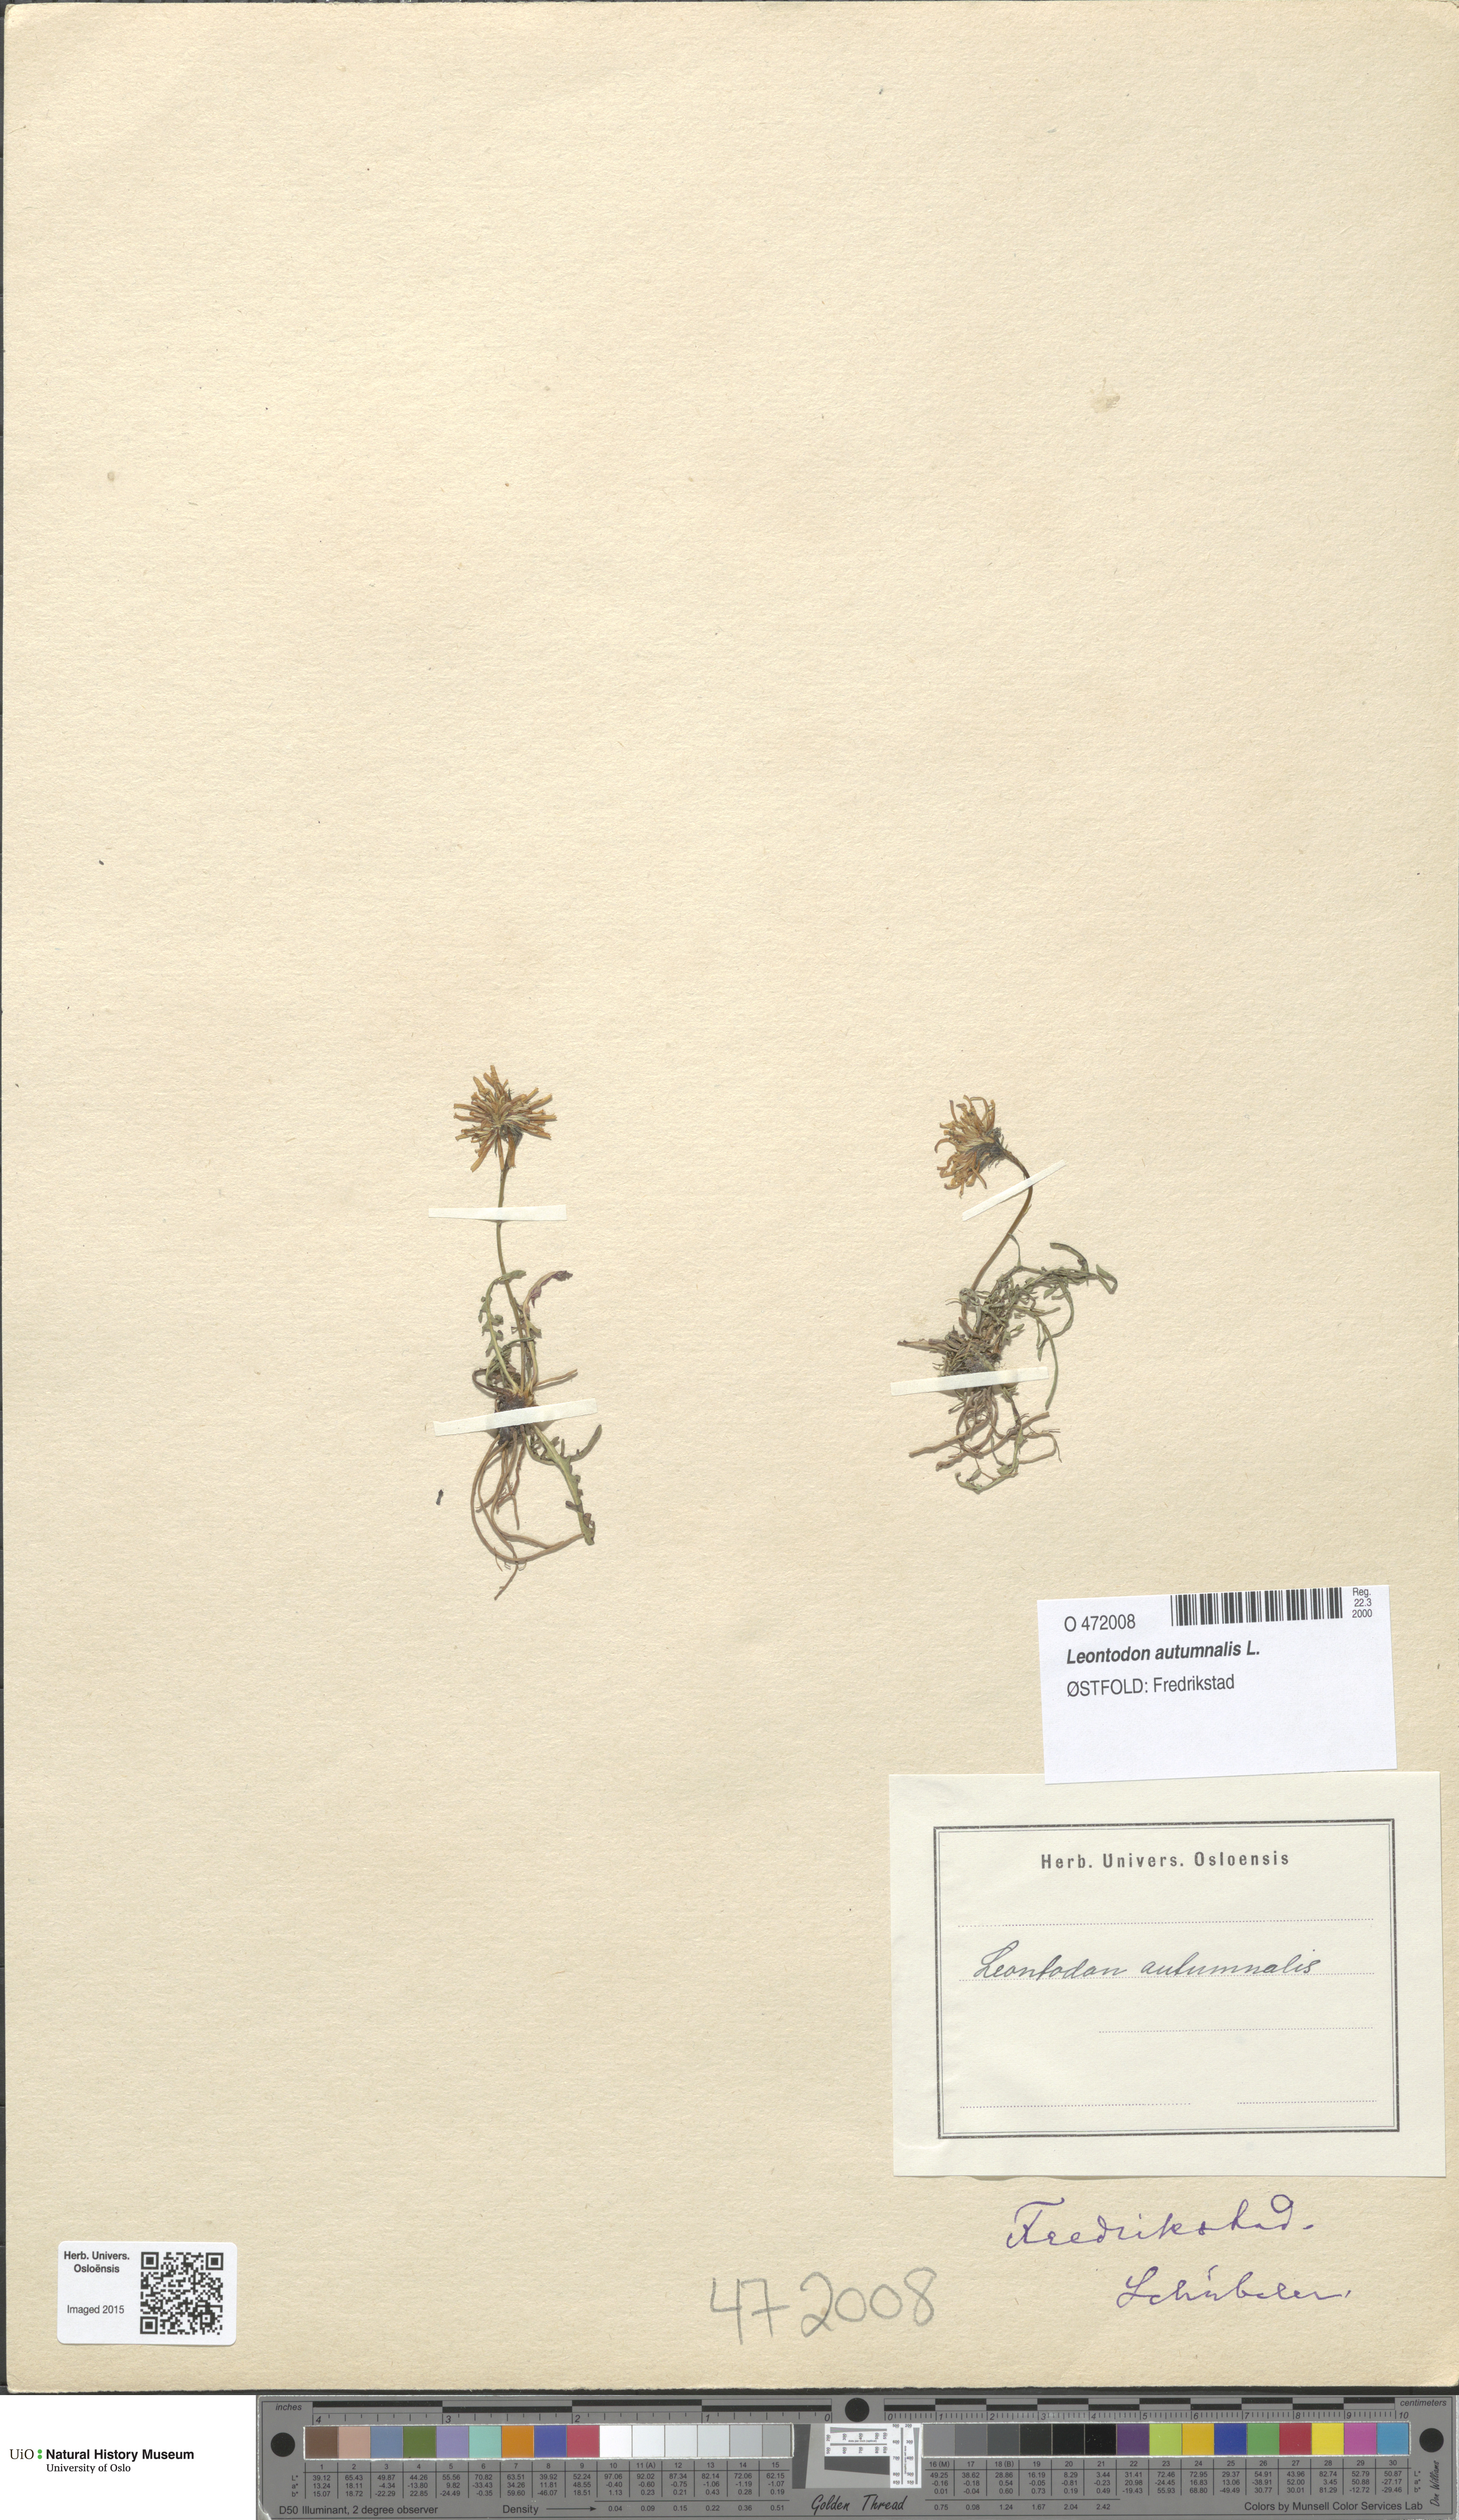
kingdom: Plantae
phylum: Tracheophyta
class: Magnoliopsida
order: Asterales
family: Asteraceae
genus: Scorzoneroides
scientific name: Scorzoneroides autumnalis
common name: Autumn hawkbit
